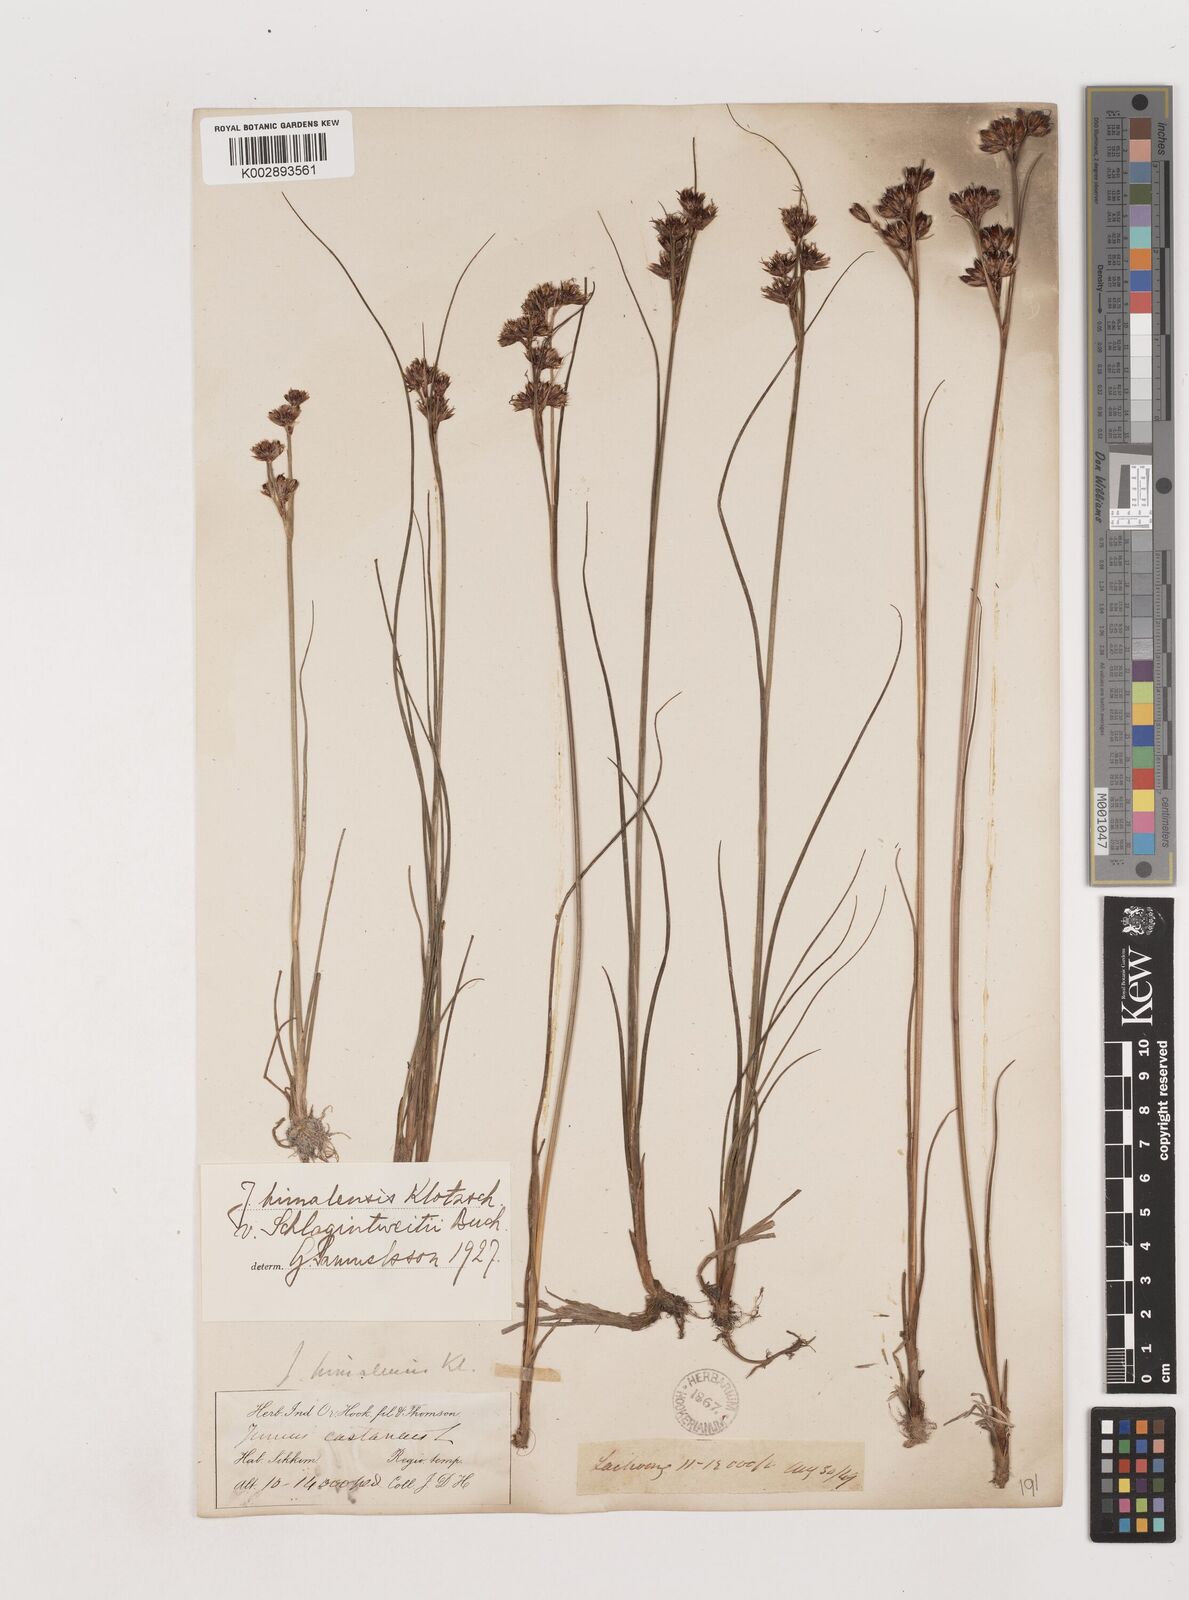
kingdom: Plantae
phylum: Tracheophyta
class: Liliopsida
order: Poales
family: Juncaceae
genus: Juncus
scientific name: Juncus himalensis
